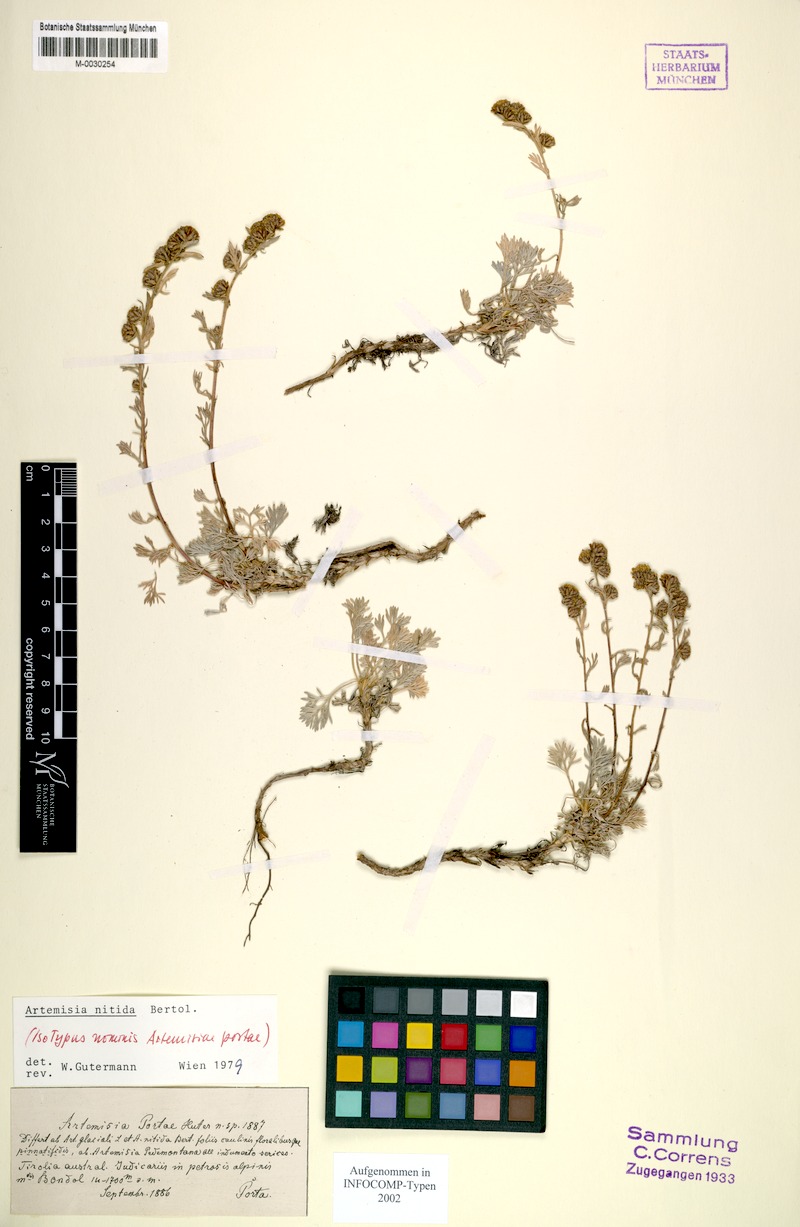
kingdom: Plantae
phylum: Tracheophyta
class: Magnoliopsida
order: Asterales
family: Asteraceae
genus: Artemisia
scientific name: Artemisia nitida
